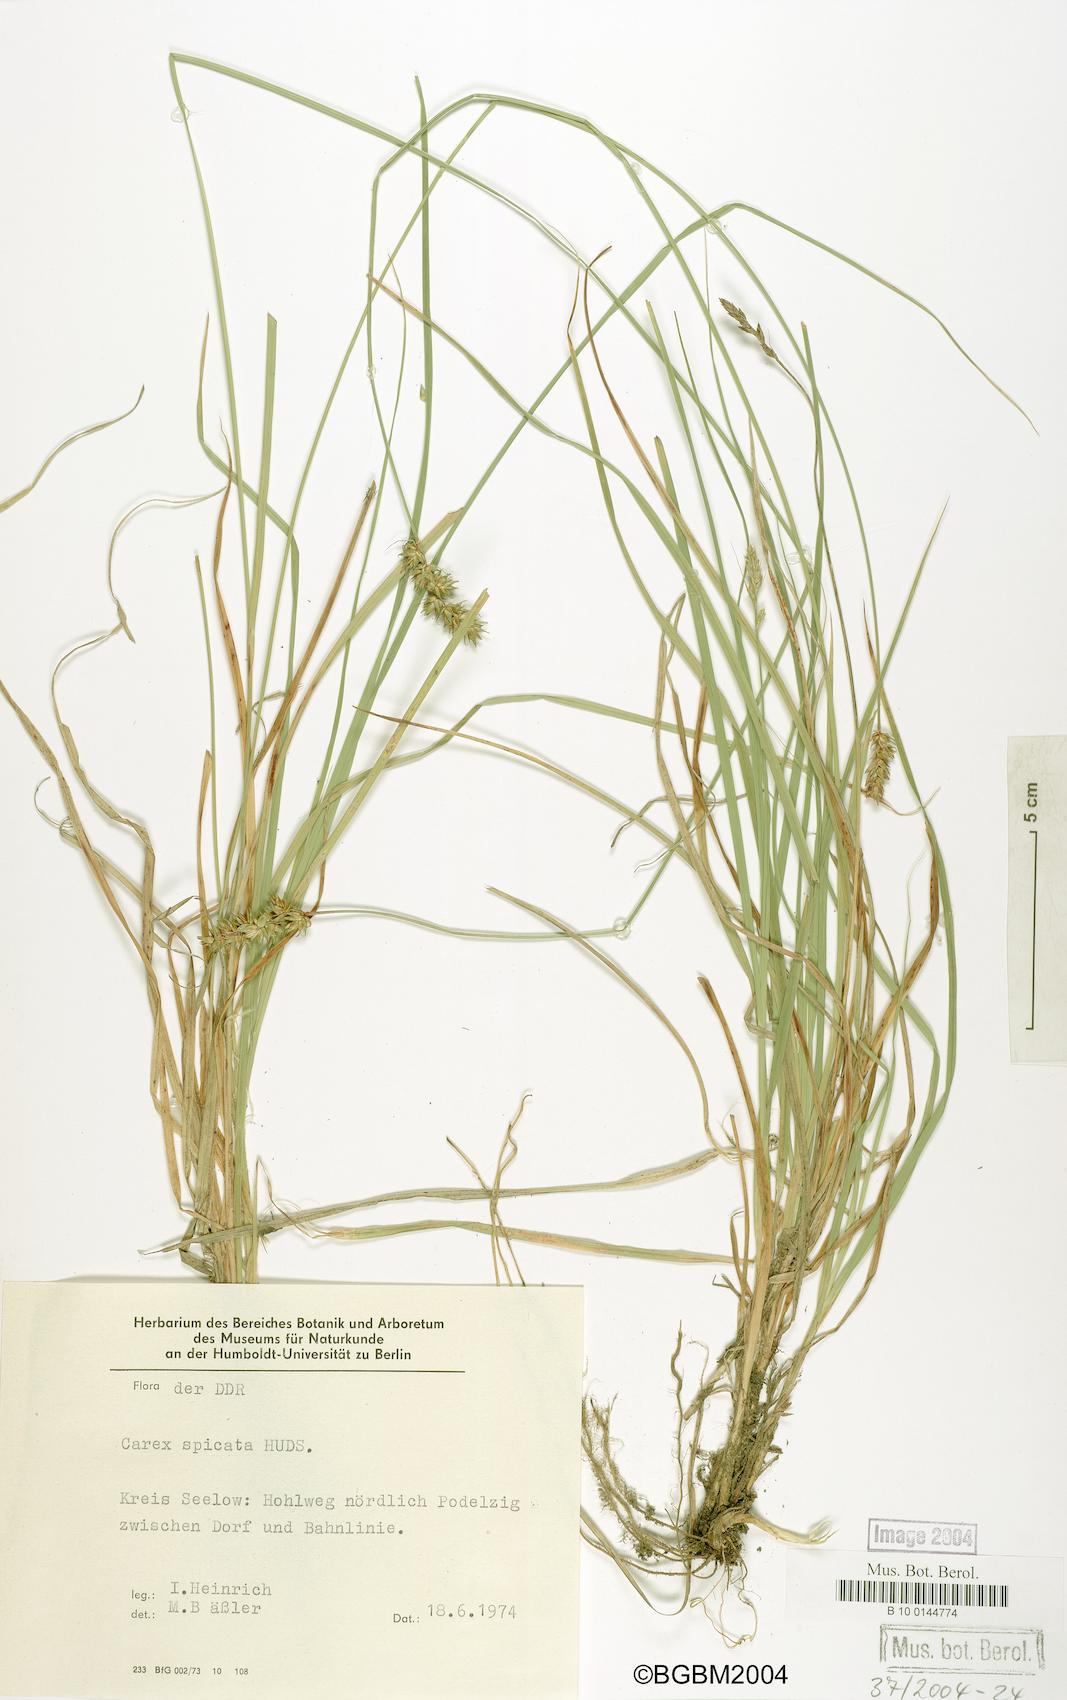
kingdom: Plantae
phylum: Tracheophyta
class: Liliopsida
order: Poales
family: Cyperaceae
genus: Carex
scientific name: Carex spicata
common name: Spiked sedge
